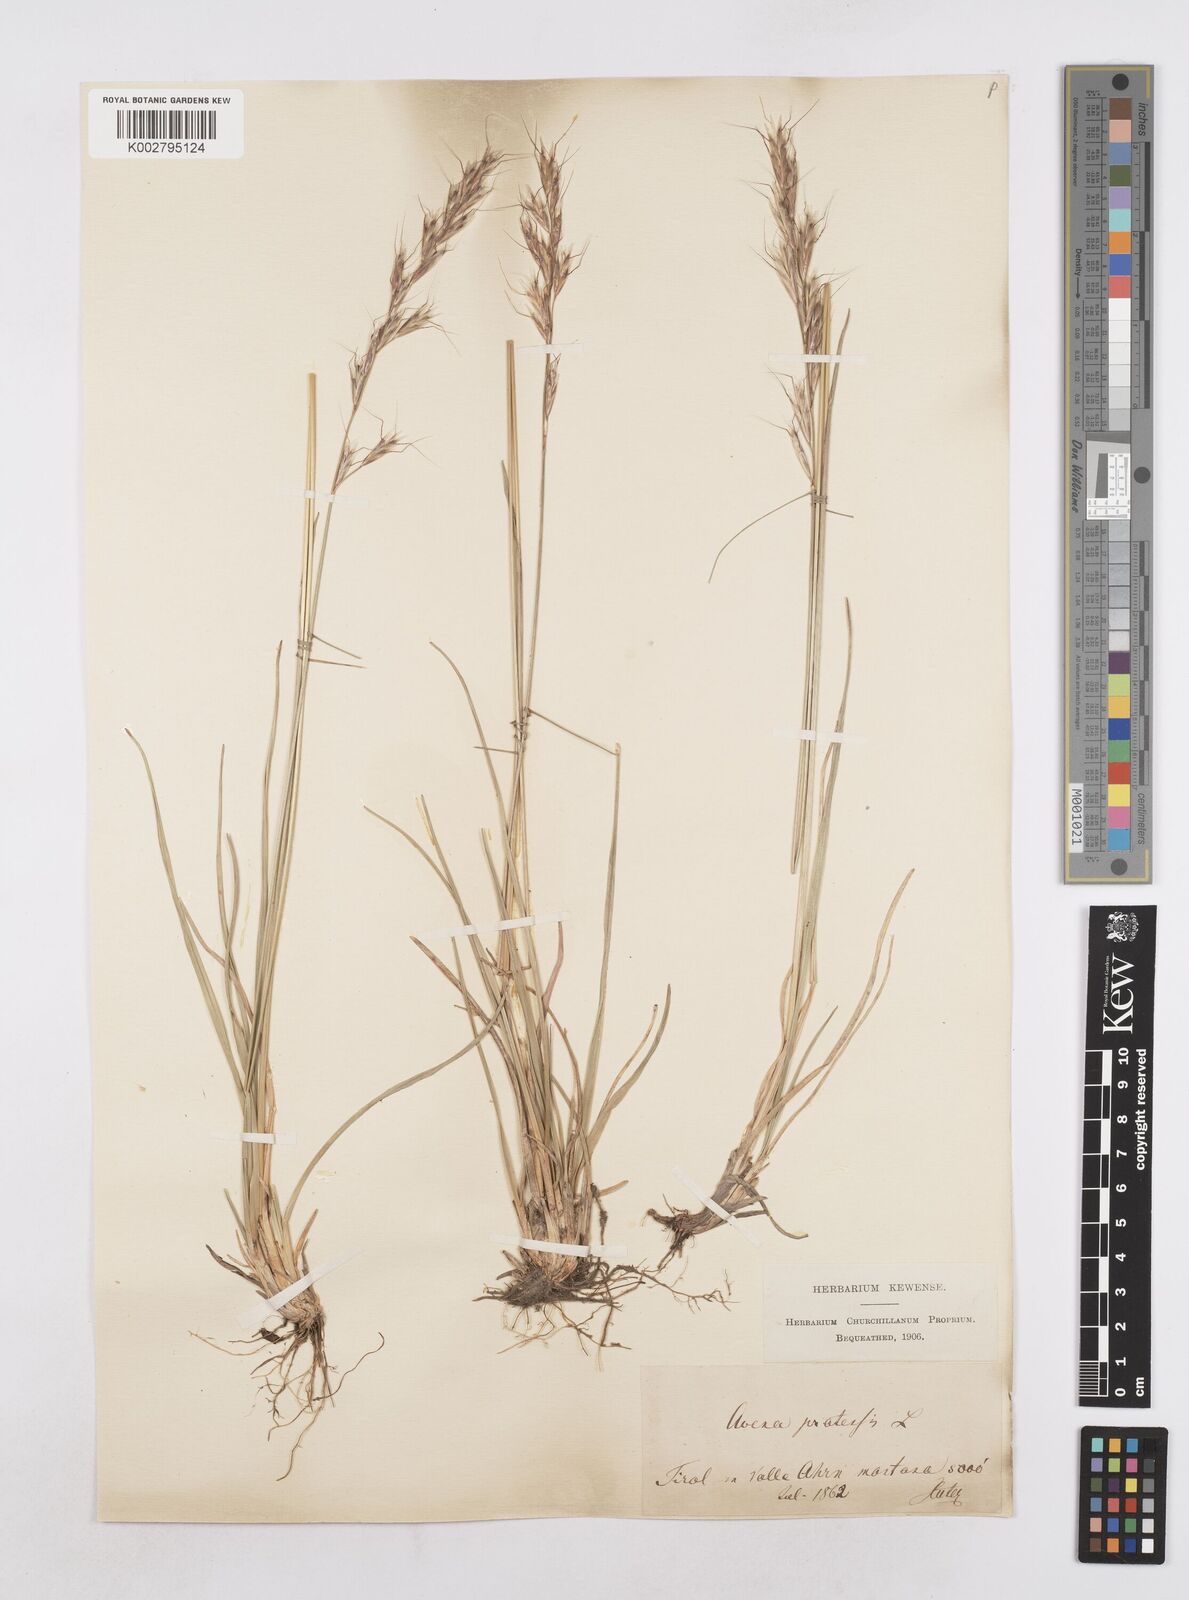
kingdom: Plantae
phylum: Tracheophyta
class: Liliopsida
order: Poales
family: Poaceae
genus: Helictochloa
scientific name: Helictochloa pratensis
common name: Meadow oat grass
